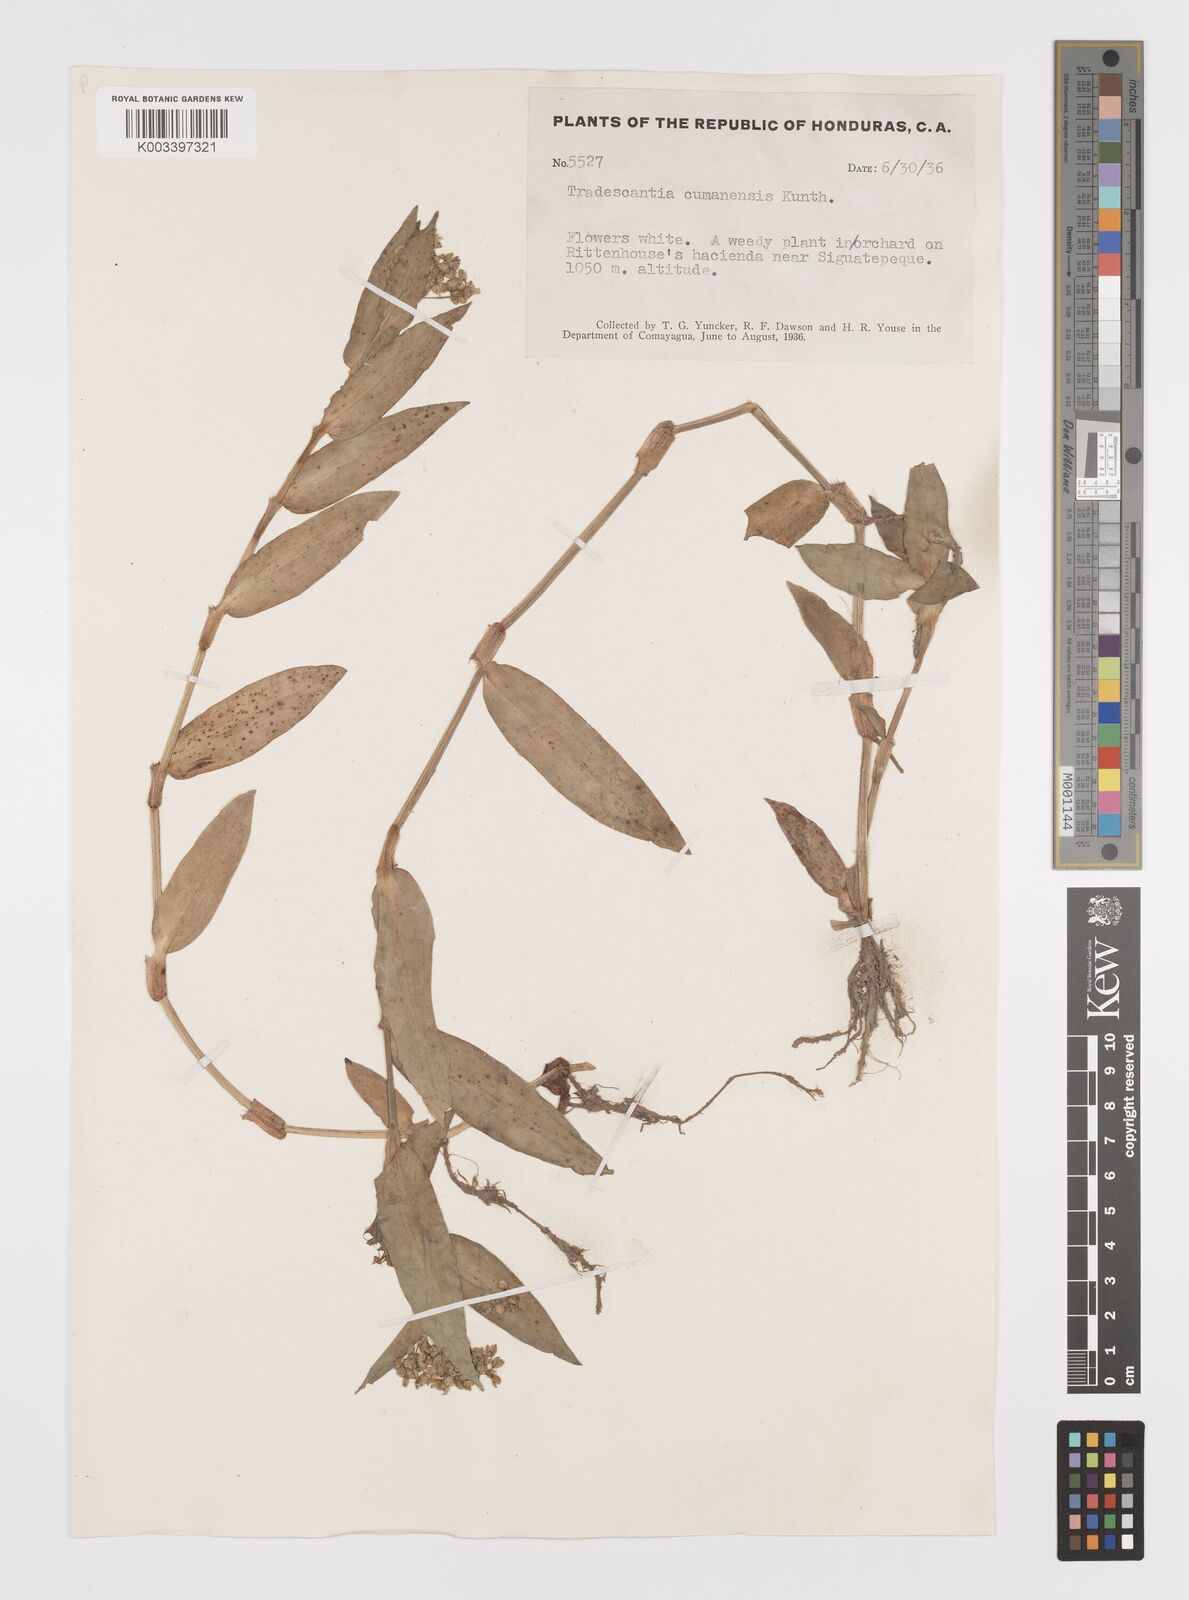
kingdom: Plantae
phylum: Tracheophyta
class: Liliopsida
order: Commelinales
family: Commelinaceae
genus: Callisia
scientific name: Callisia serrulata
